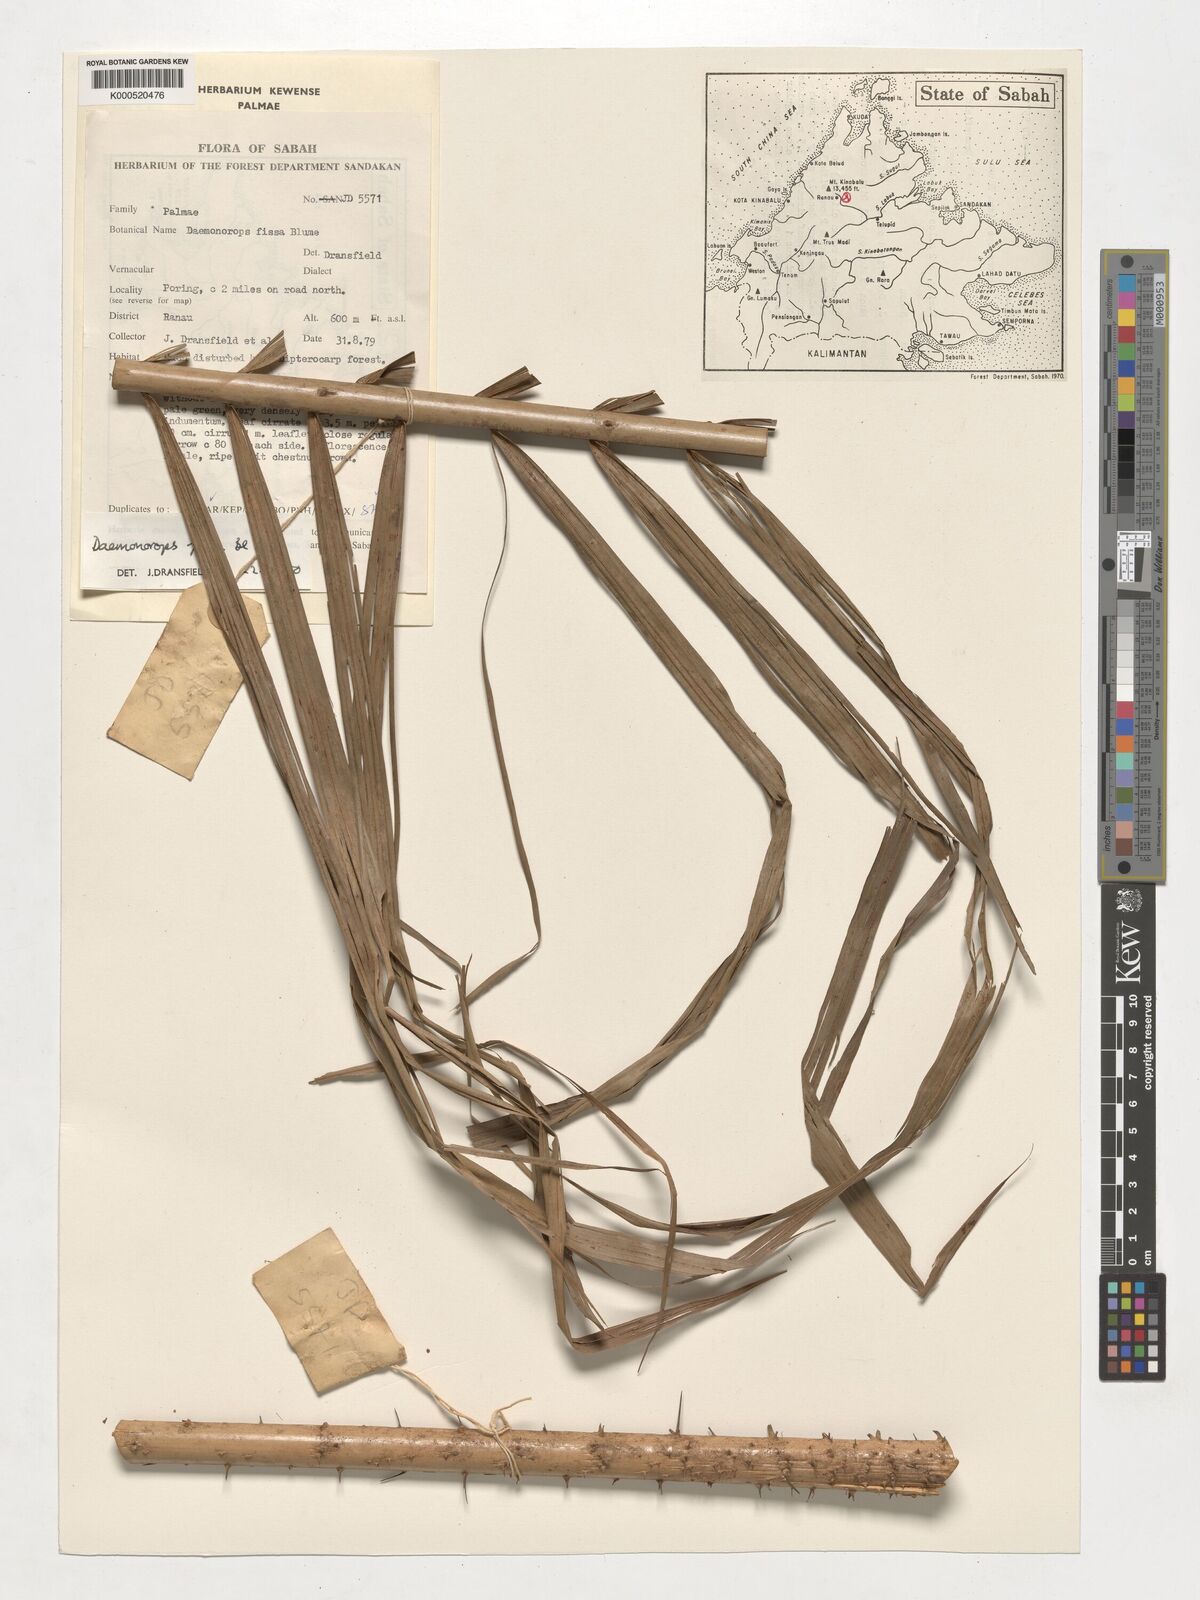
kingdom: Plantae
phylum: Tracheophyta
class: Liliopsida
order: Arecales
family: Arecaceae
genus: Calamus
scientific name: Calamus melanochaetes
